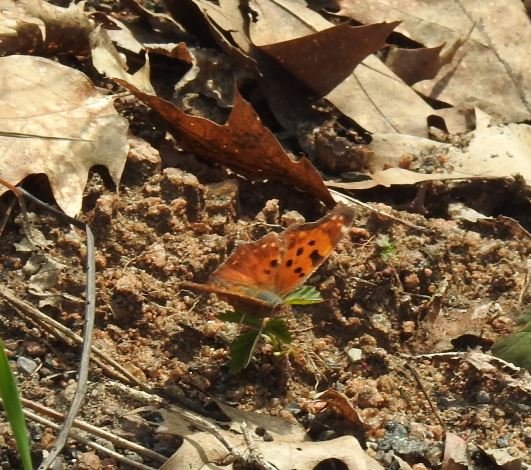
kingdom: Animalia
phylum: Arthropoda
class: Insecta
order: Lepidoptera
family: Nymphalidae
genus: Polygonia
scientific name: Polygonia progne
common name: Gray Comma
